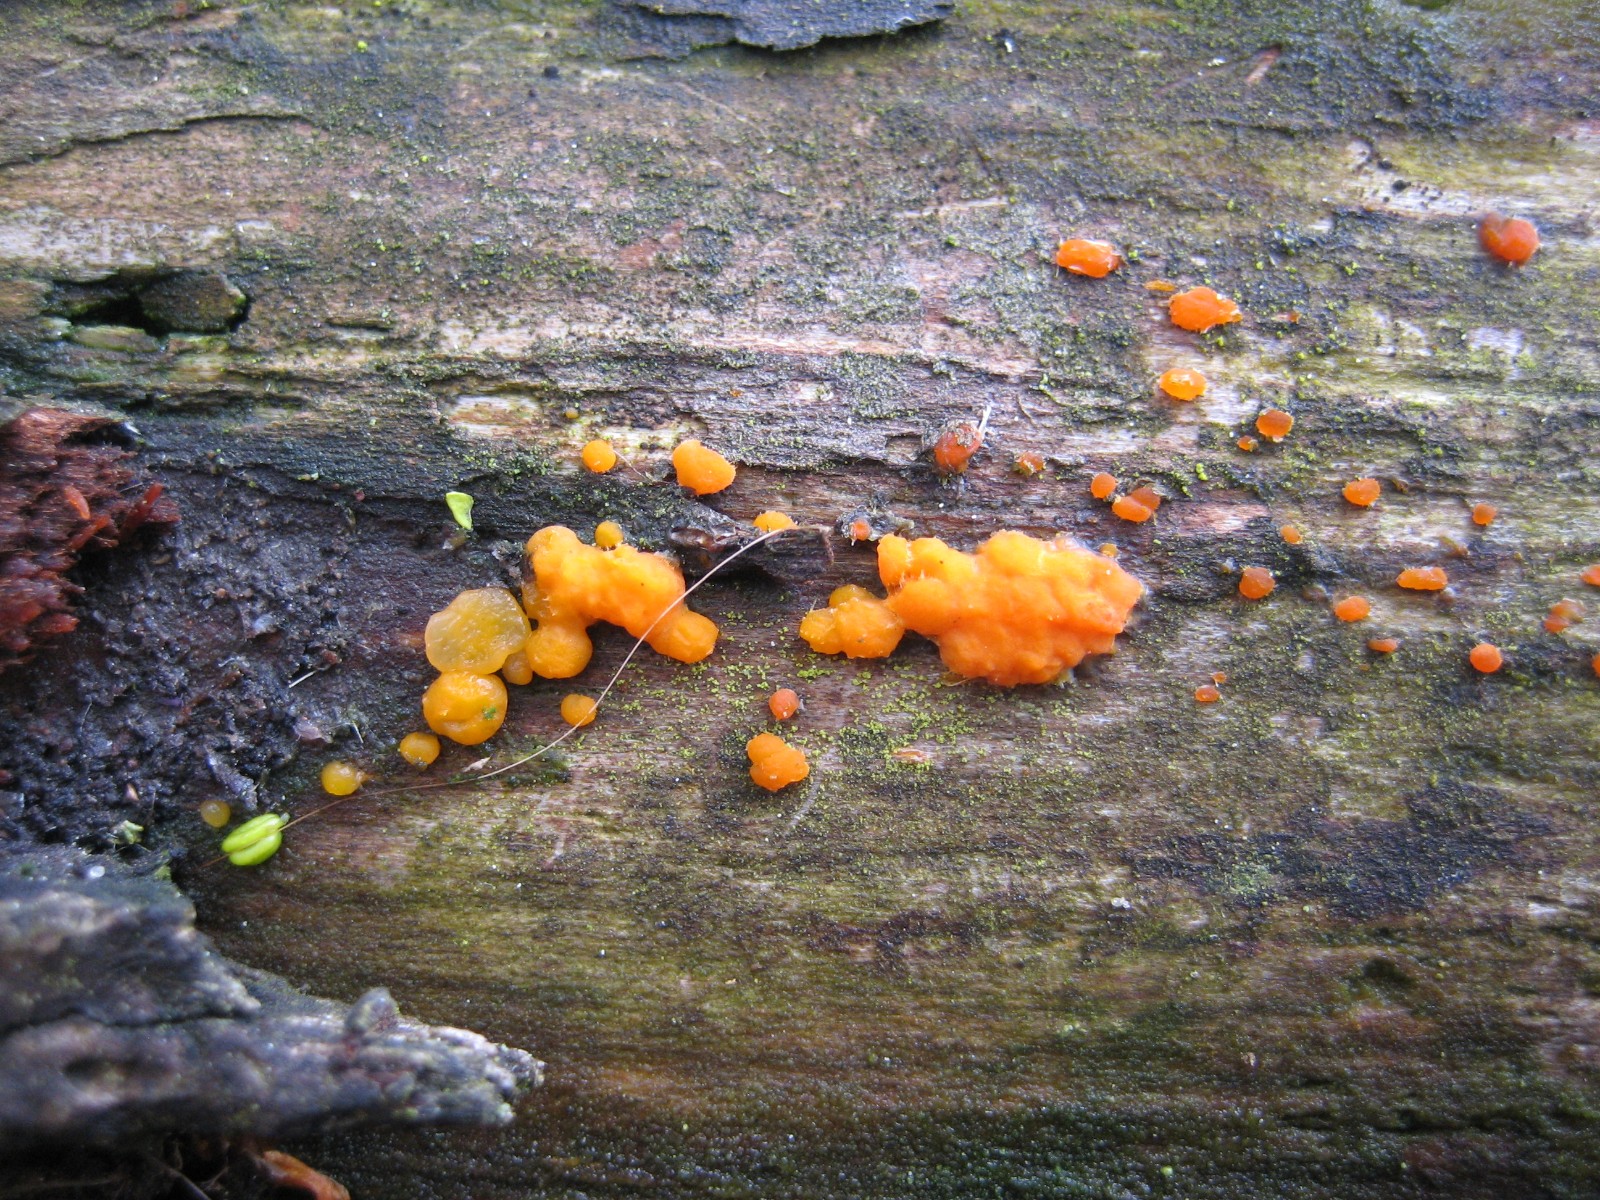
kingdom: Fungi
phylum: Basidiomycota
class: Dacrymycetes
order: Dacrymycetales
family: Dacrymycetaceae
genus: Dacrymyces
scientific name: Dacrymyces stillatus
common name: almindelig tåresvamp
